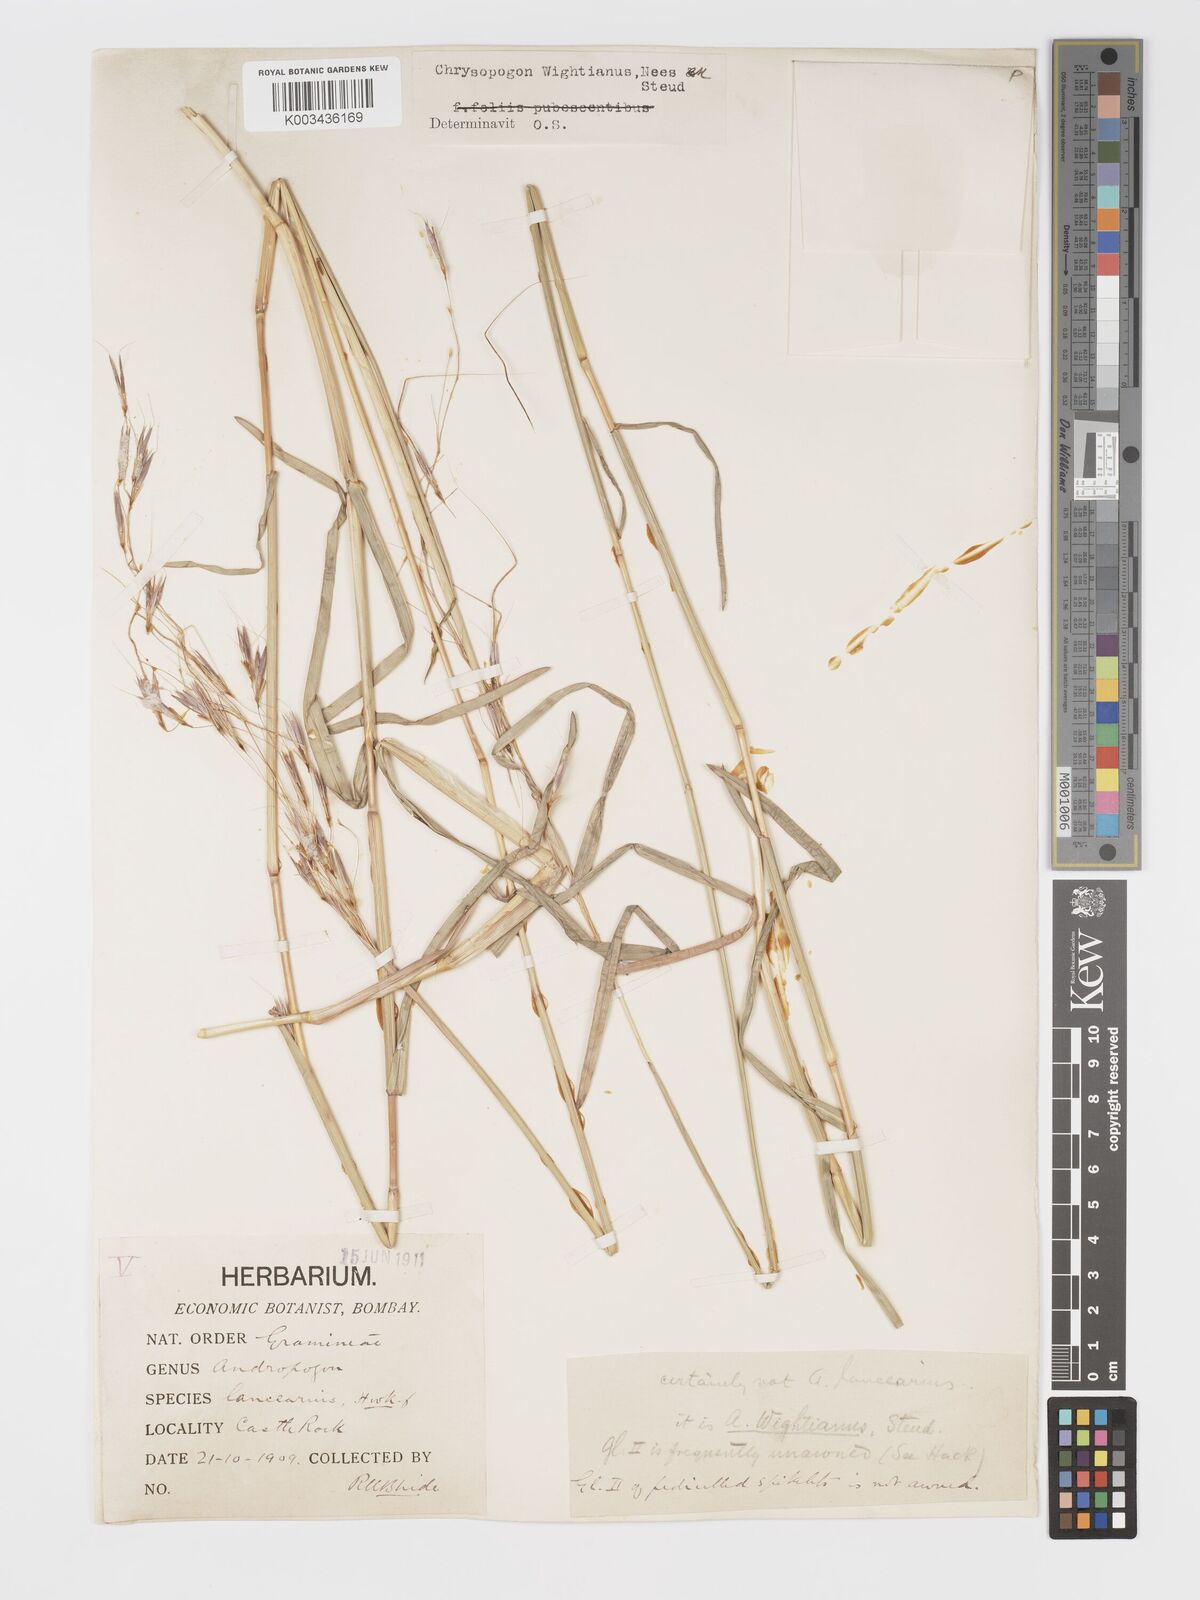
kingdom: Plantae
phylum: Tracheophyta
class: Liliopsida
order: Poales
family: Poaceae
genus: Chrysopogon
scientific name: Chrysopogon orientalis
